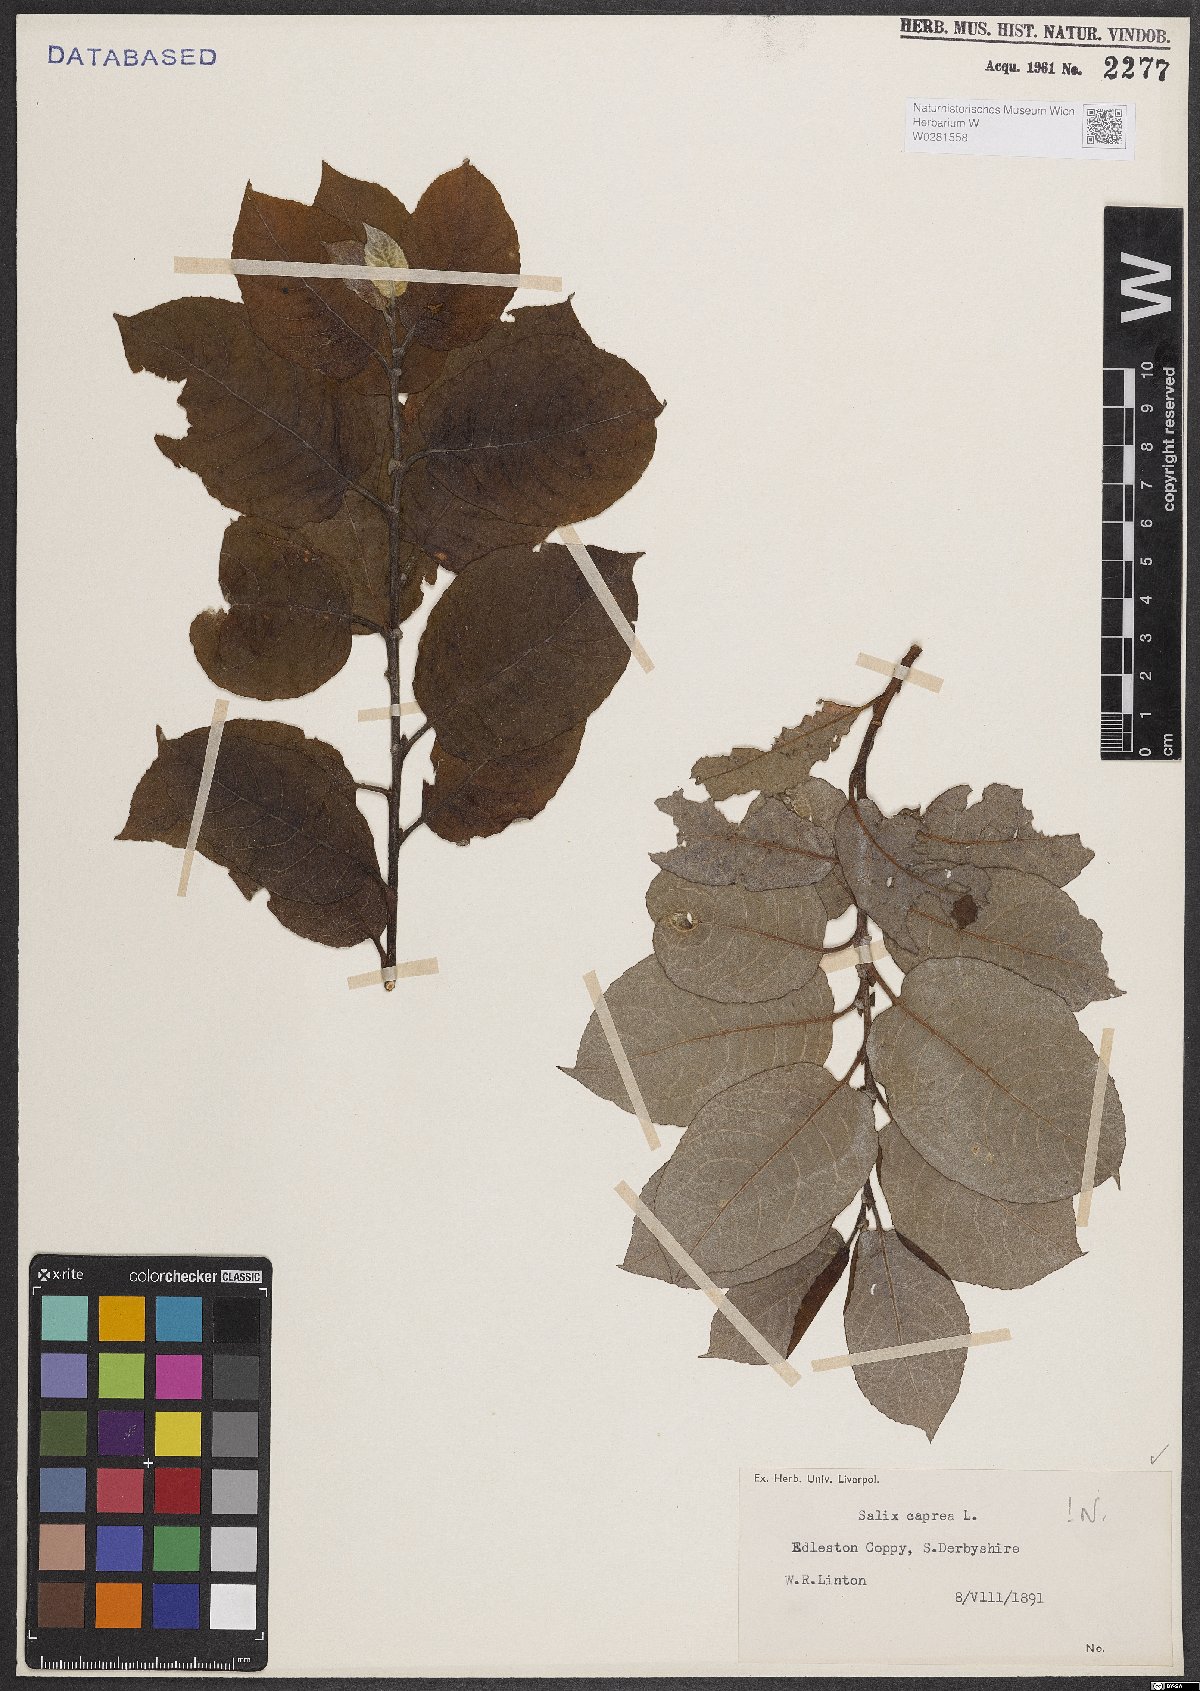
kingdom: Plantae
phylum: Tracheophyta
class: Magnoliopsida
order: Malpighiales
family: Salicaceae
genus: Salix
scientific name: Salix caprea
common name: Goat willow
